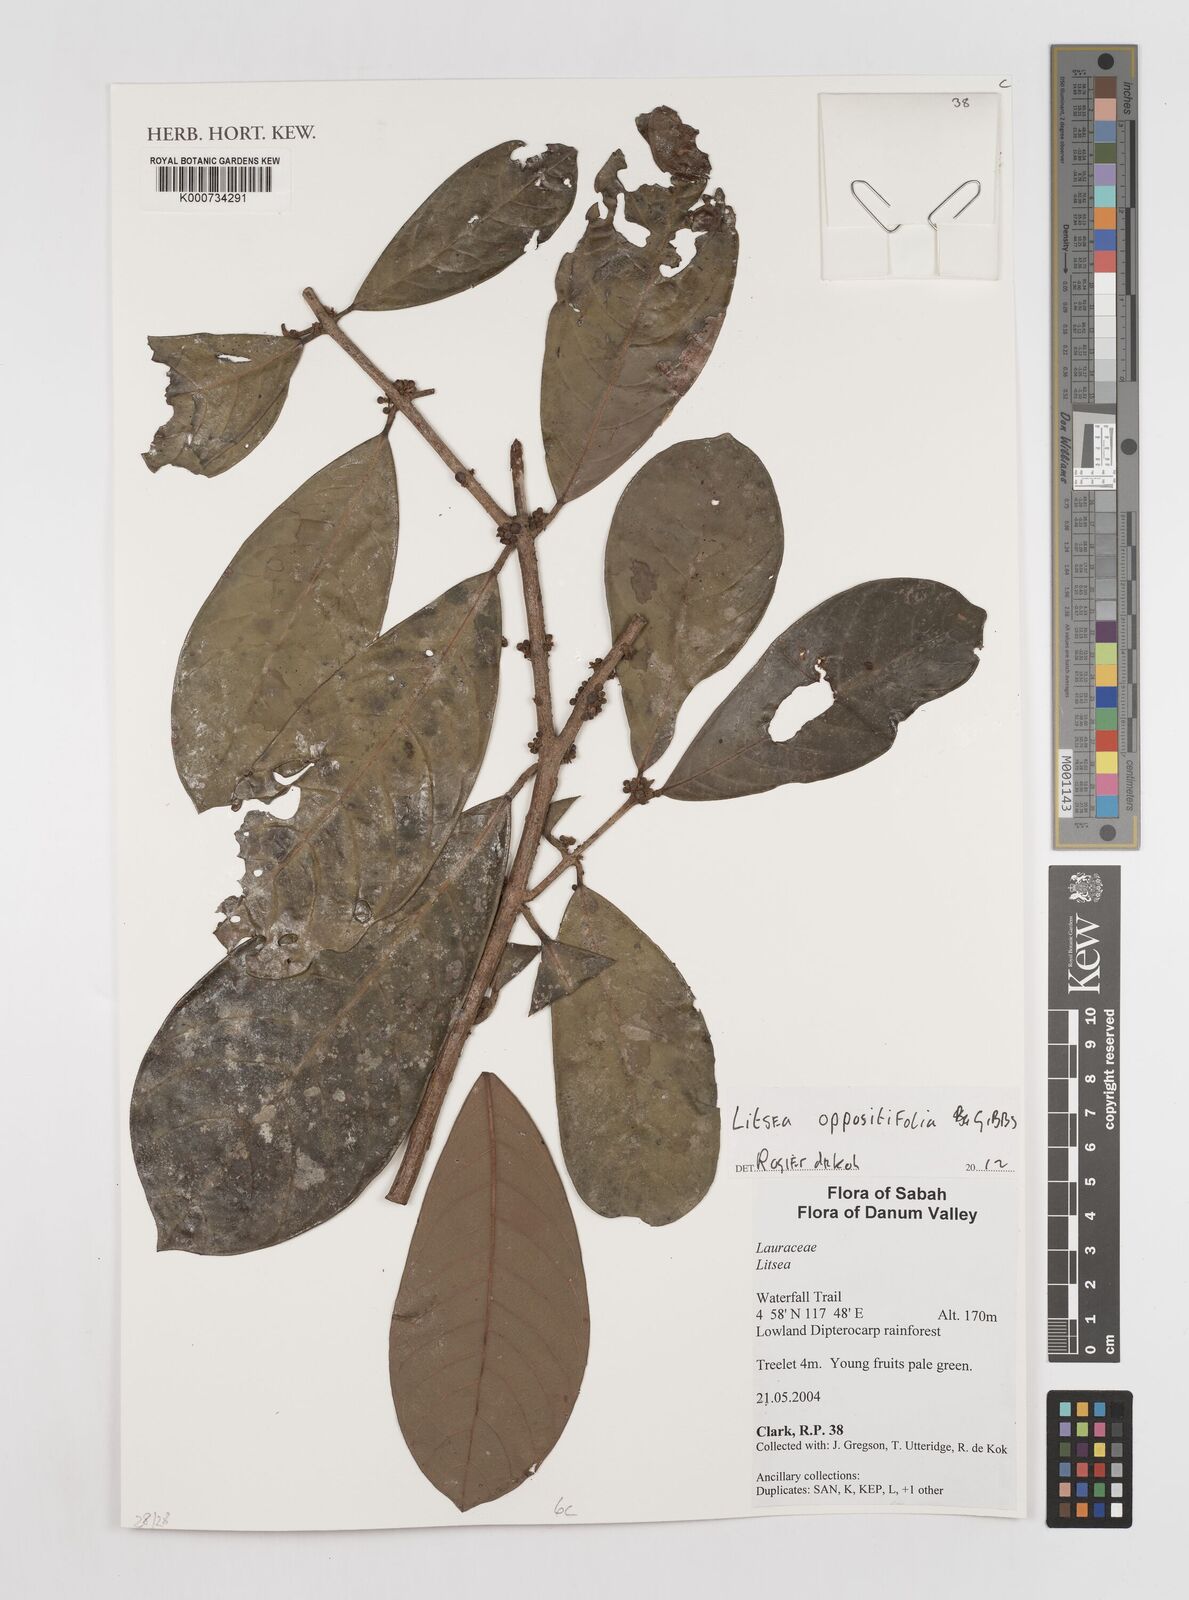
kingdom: Plantae
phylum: Tracheophyta
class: Magnoliopsida
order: Laurales
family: Lauraceae
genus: Litsea
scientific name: Litsea oppositifolia
